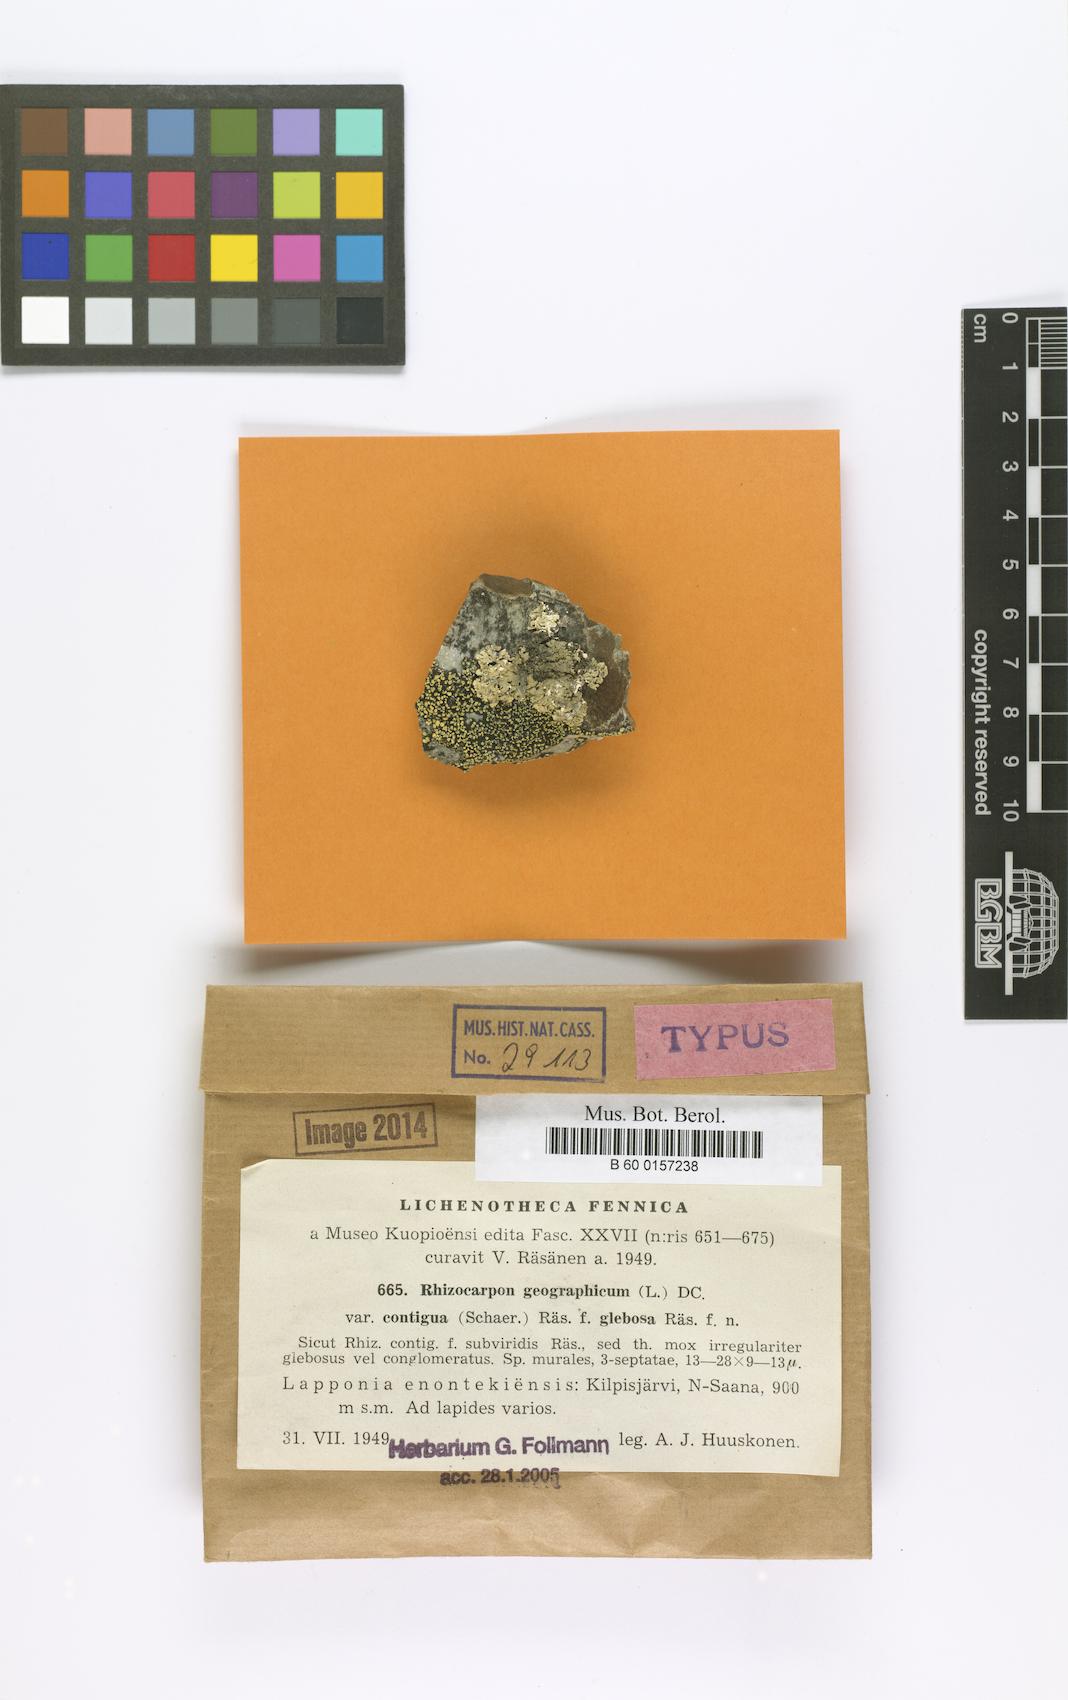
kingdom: Fungi
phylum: Ascomycota
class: Lecanoromycetes
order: Rhizocarpales
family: Rhizocarpaceae
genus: Rhizocarpon
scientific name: Rhizocarpon geographicum
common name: Yellow map lichen
